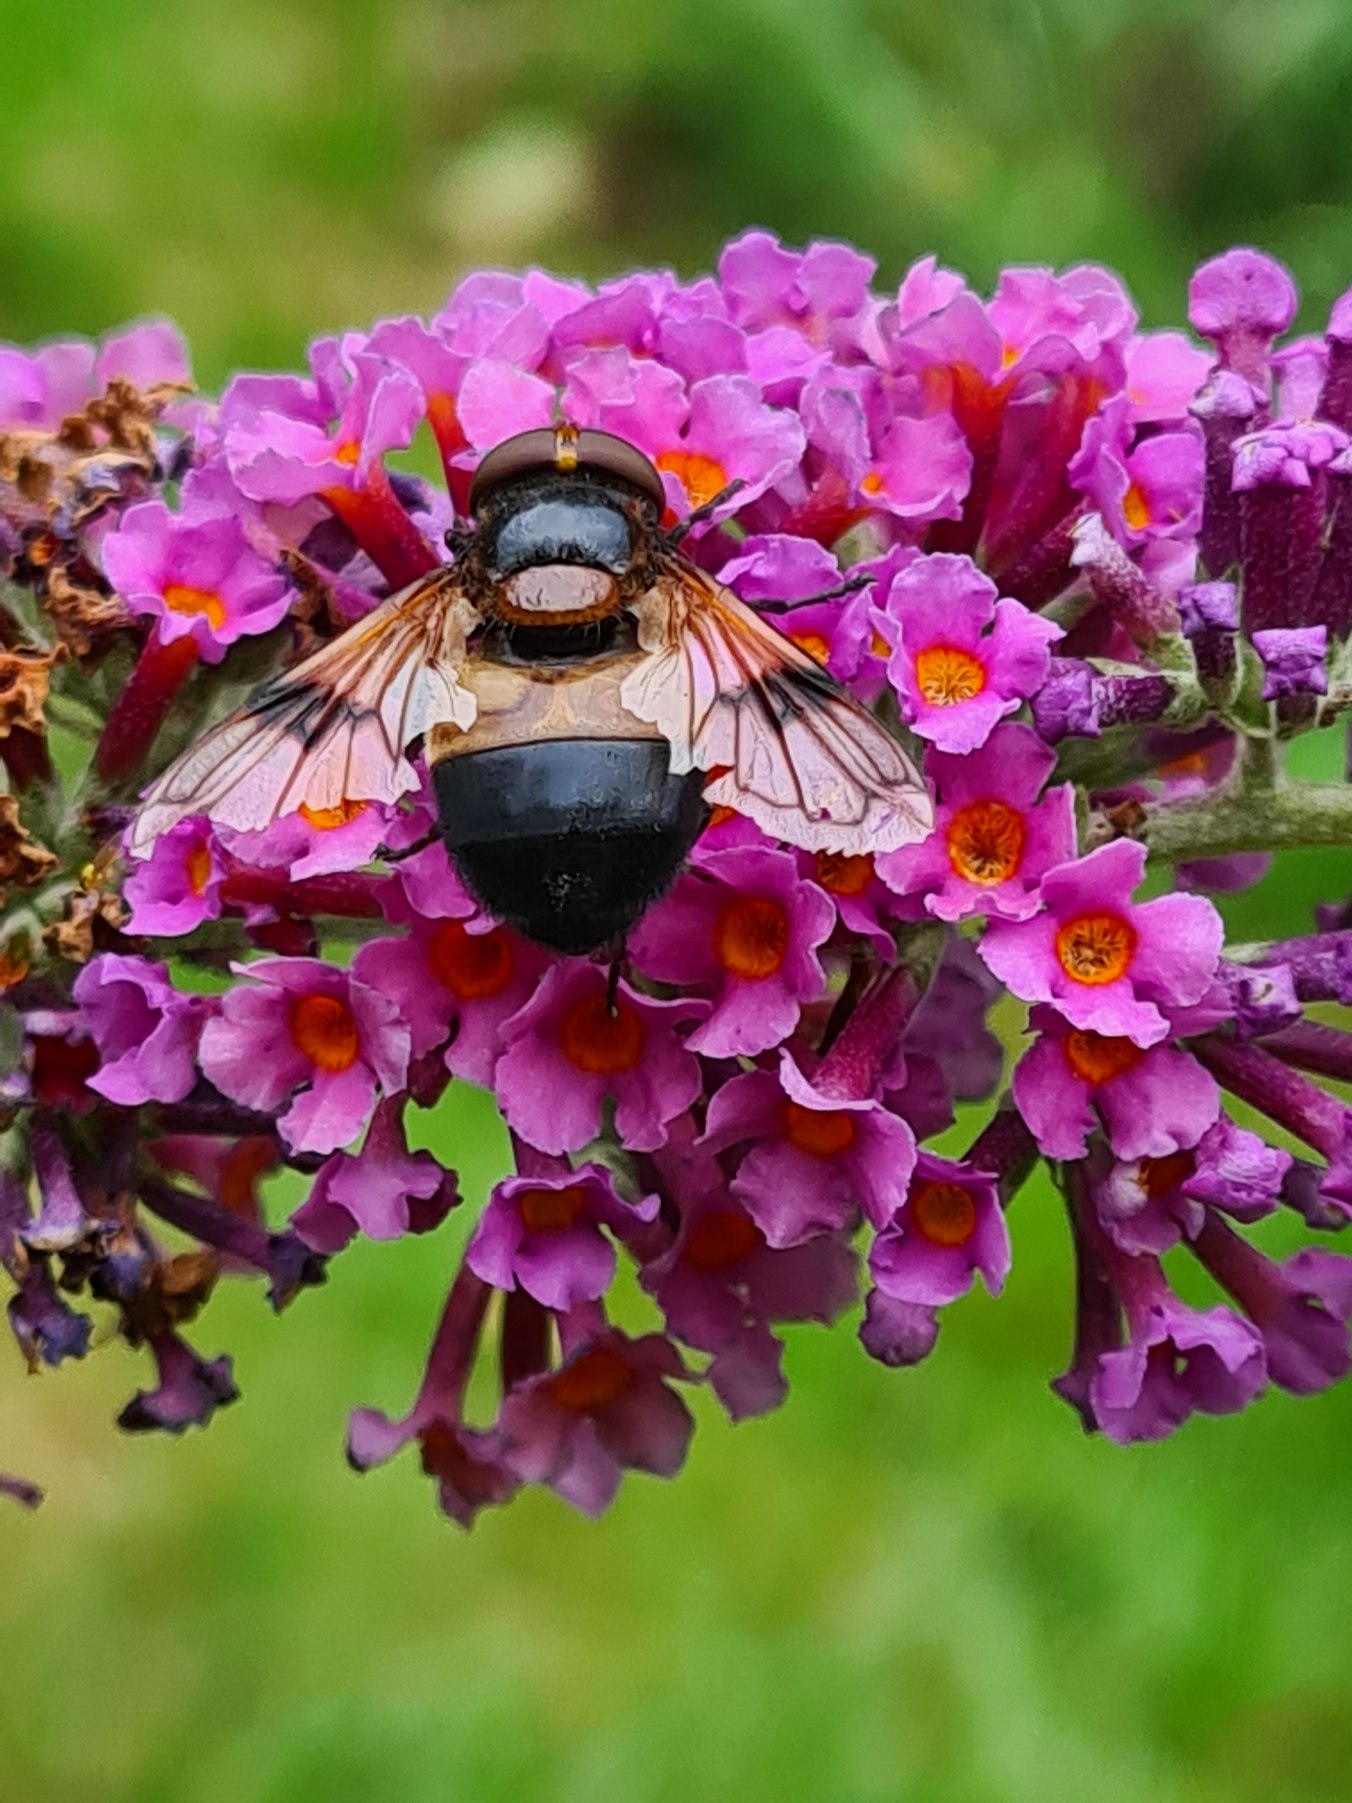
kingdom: Animalia
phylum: Arthropoda
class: Insecta
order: Diptera
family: Syrphidae
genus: Volucella
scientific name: Volucella pellucens
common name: Hvidbåndet humlesvirreflue
